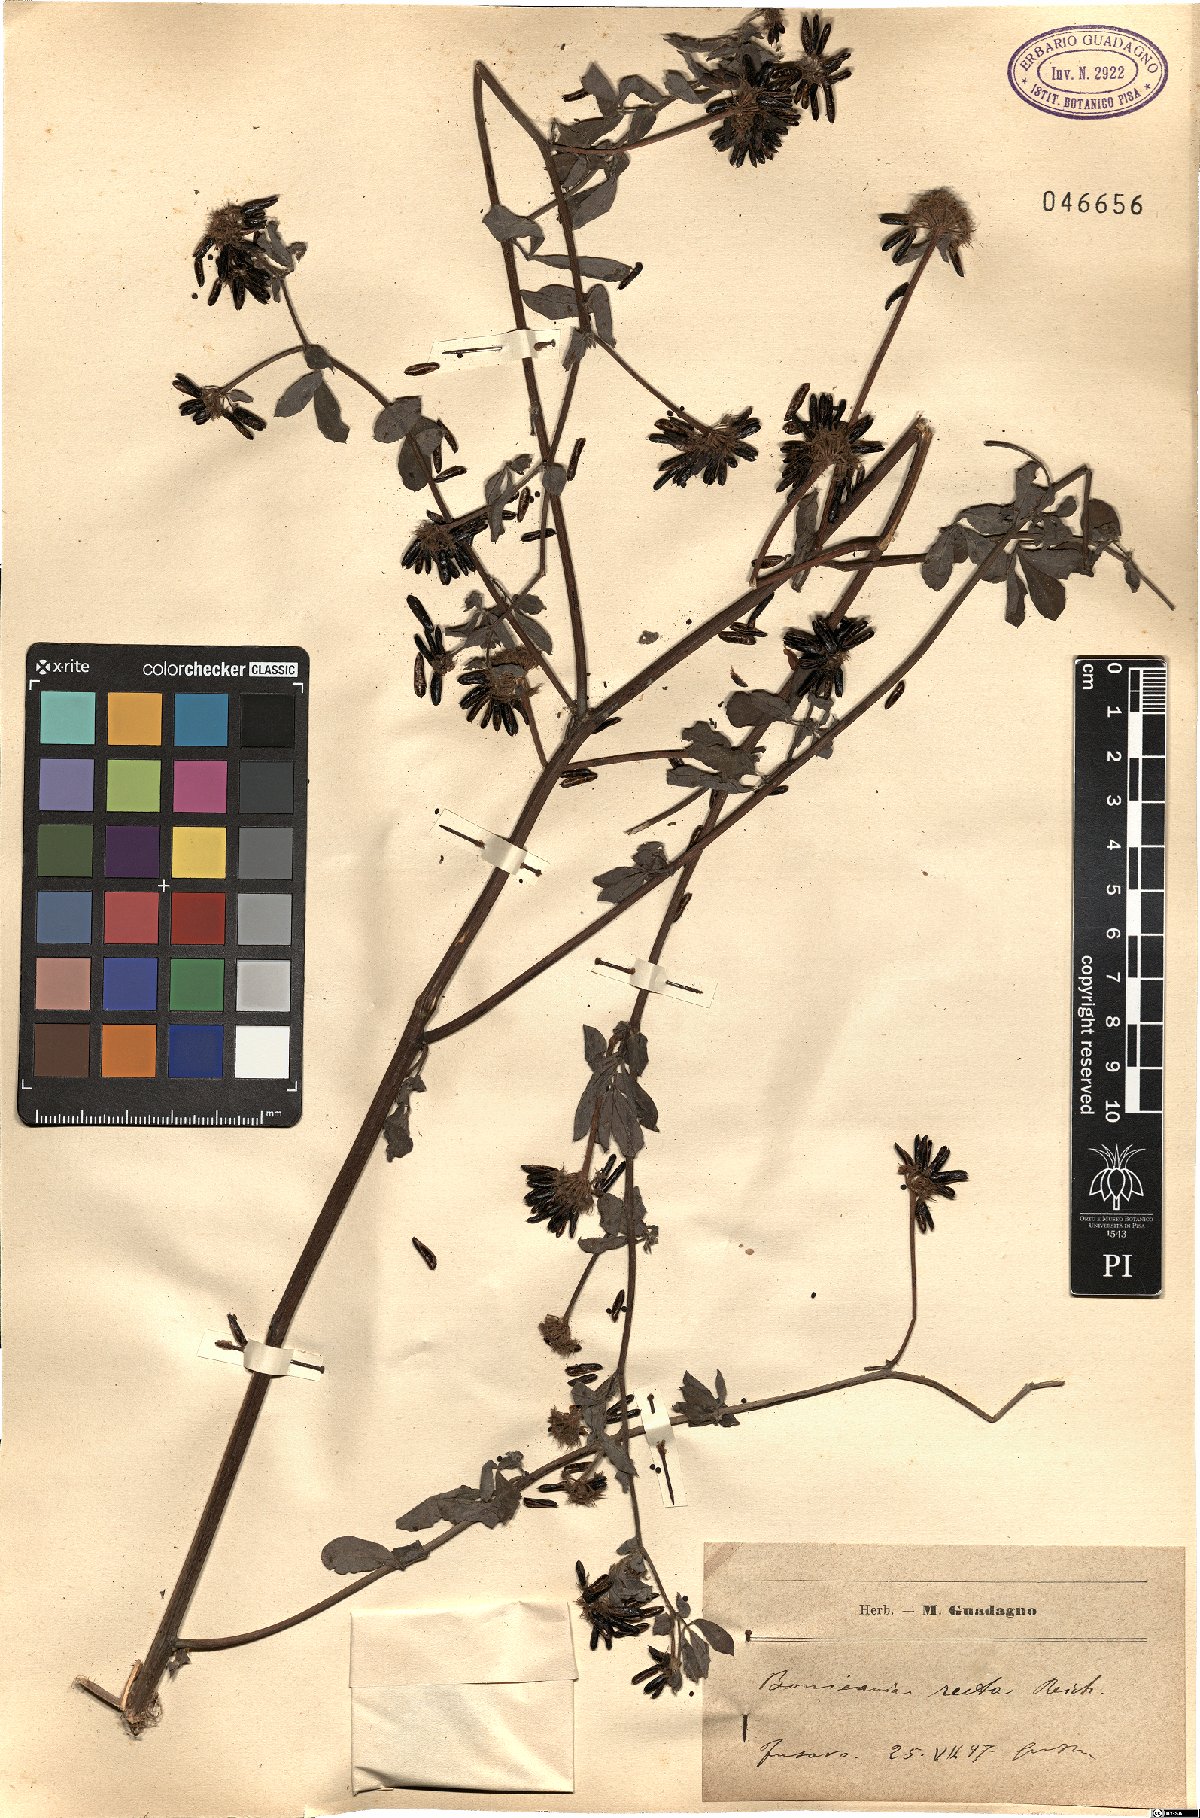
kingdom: Plantae
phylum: Tracheophyta
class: Magnoliopsida
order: Fabales
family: Fabaceae
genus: Lotus
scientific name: Lotus rectus
